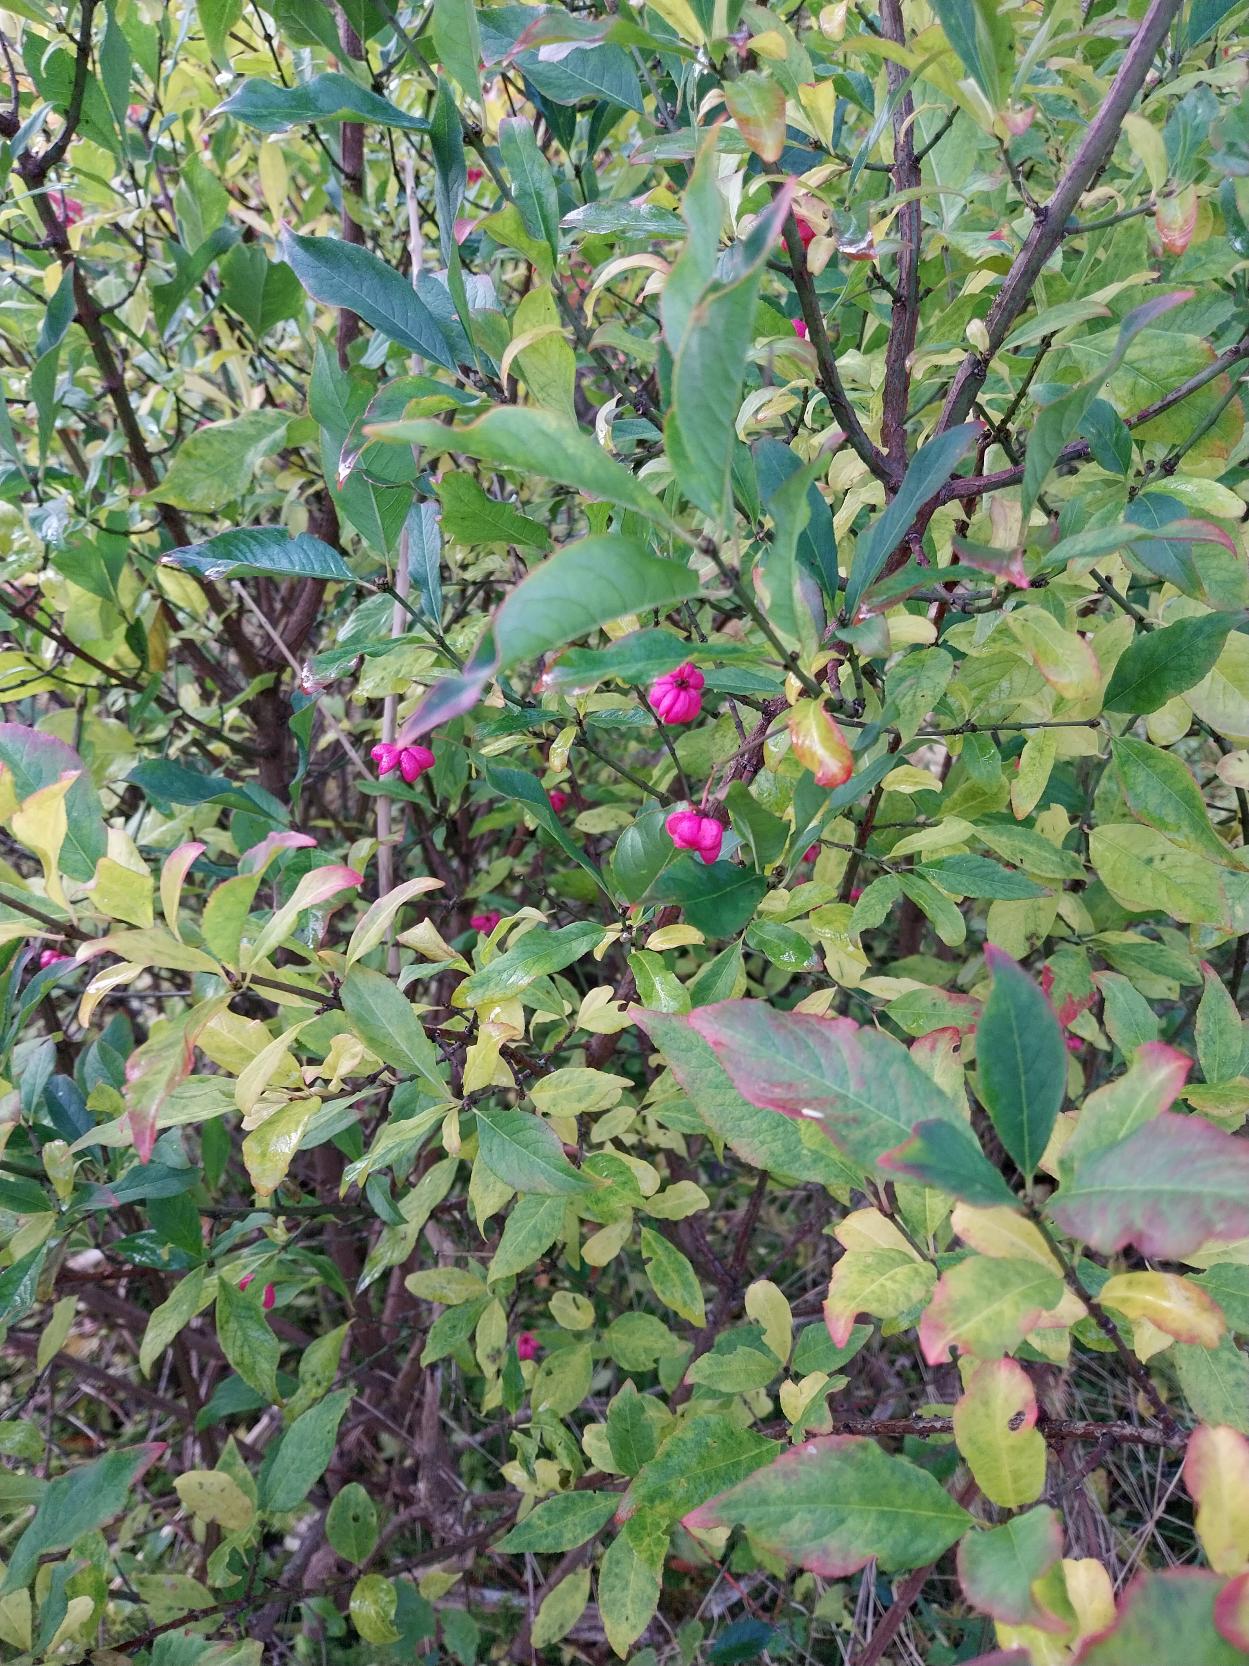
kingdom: Plantae
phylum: Tracheophyta
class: Magnoliopsida
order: Celastrales
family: Celastraceae
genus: Euonymus
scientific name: Euonymus europaeus
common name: Benved
